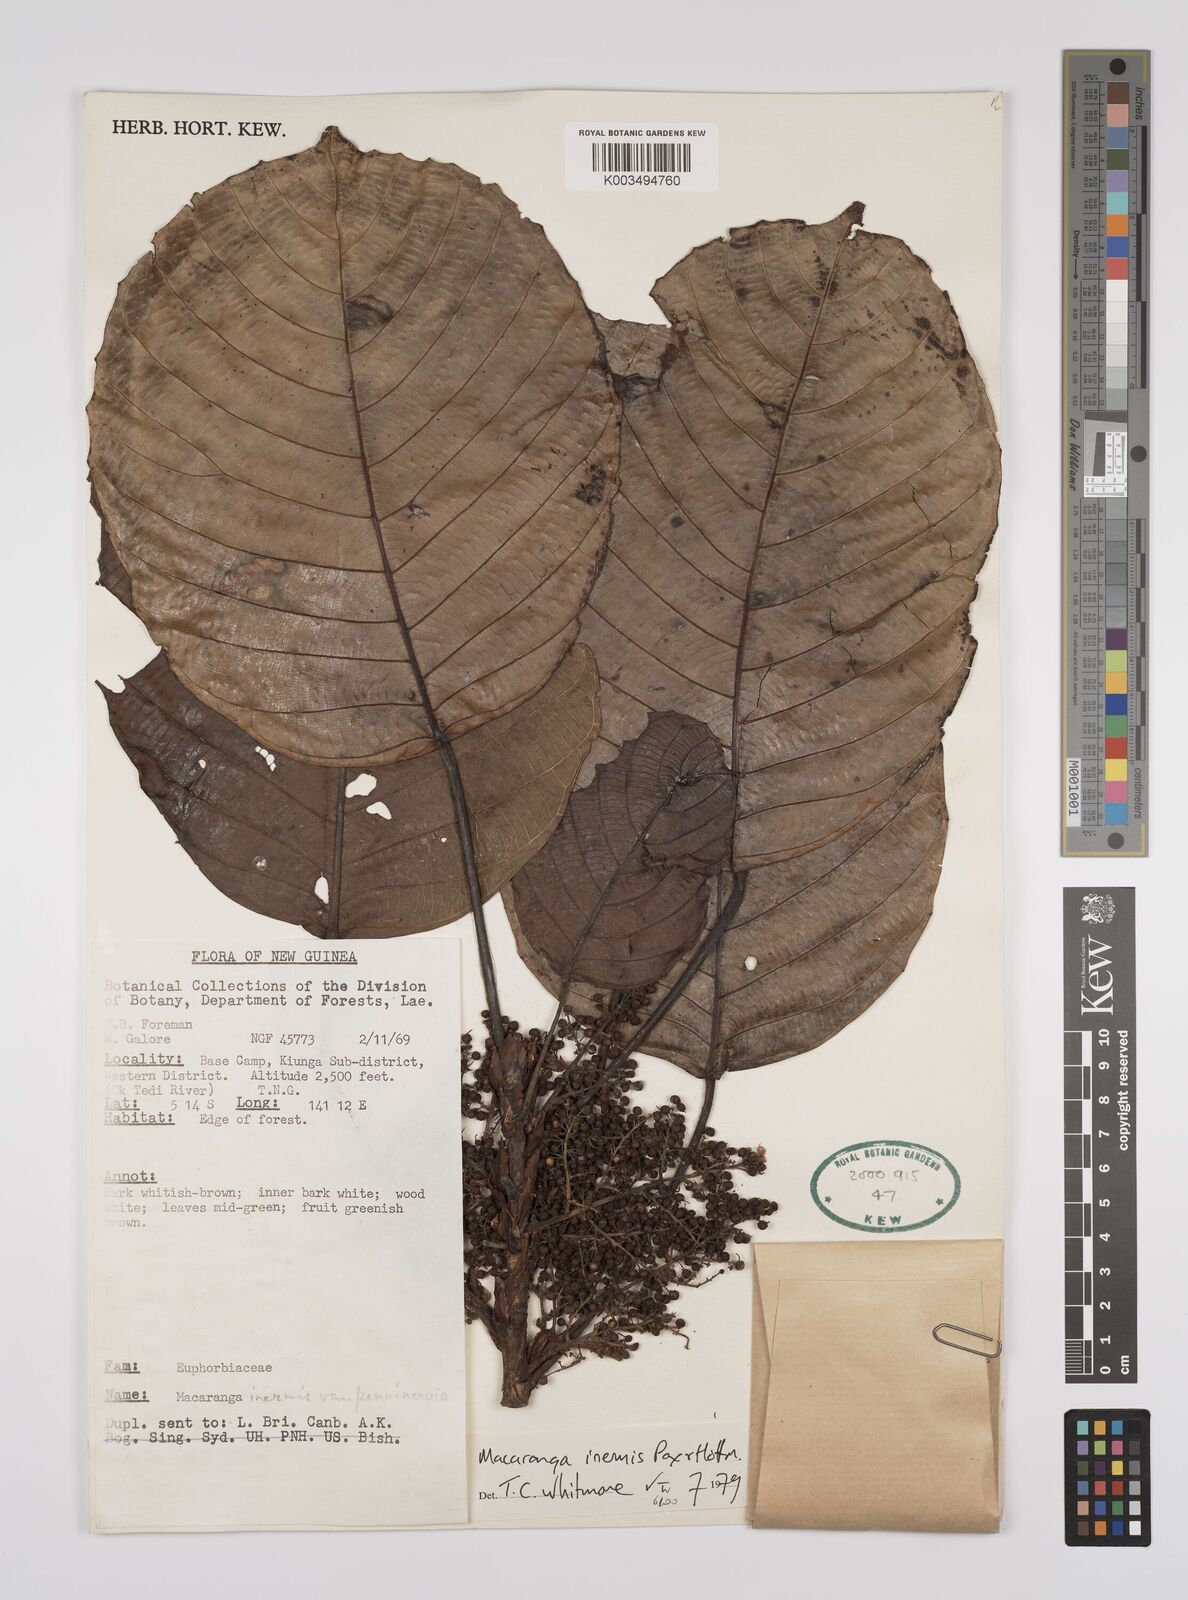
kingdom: Plantae
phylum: Tracheophyta
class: Magnoliopsida
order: Malpighiales
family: Euphorbiaceae
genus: Macaranga
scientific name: Macaranga inermis
